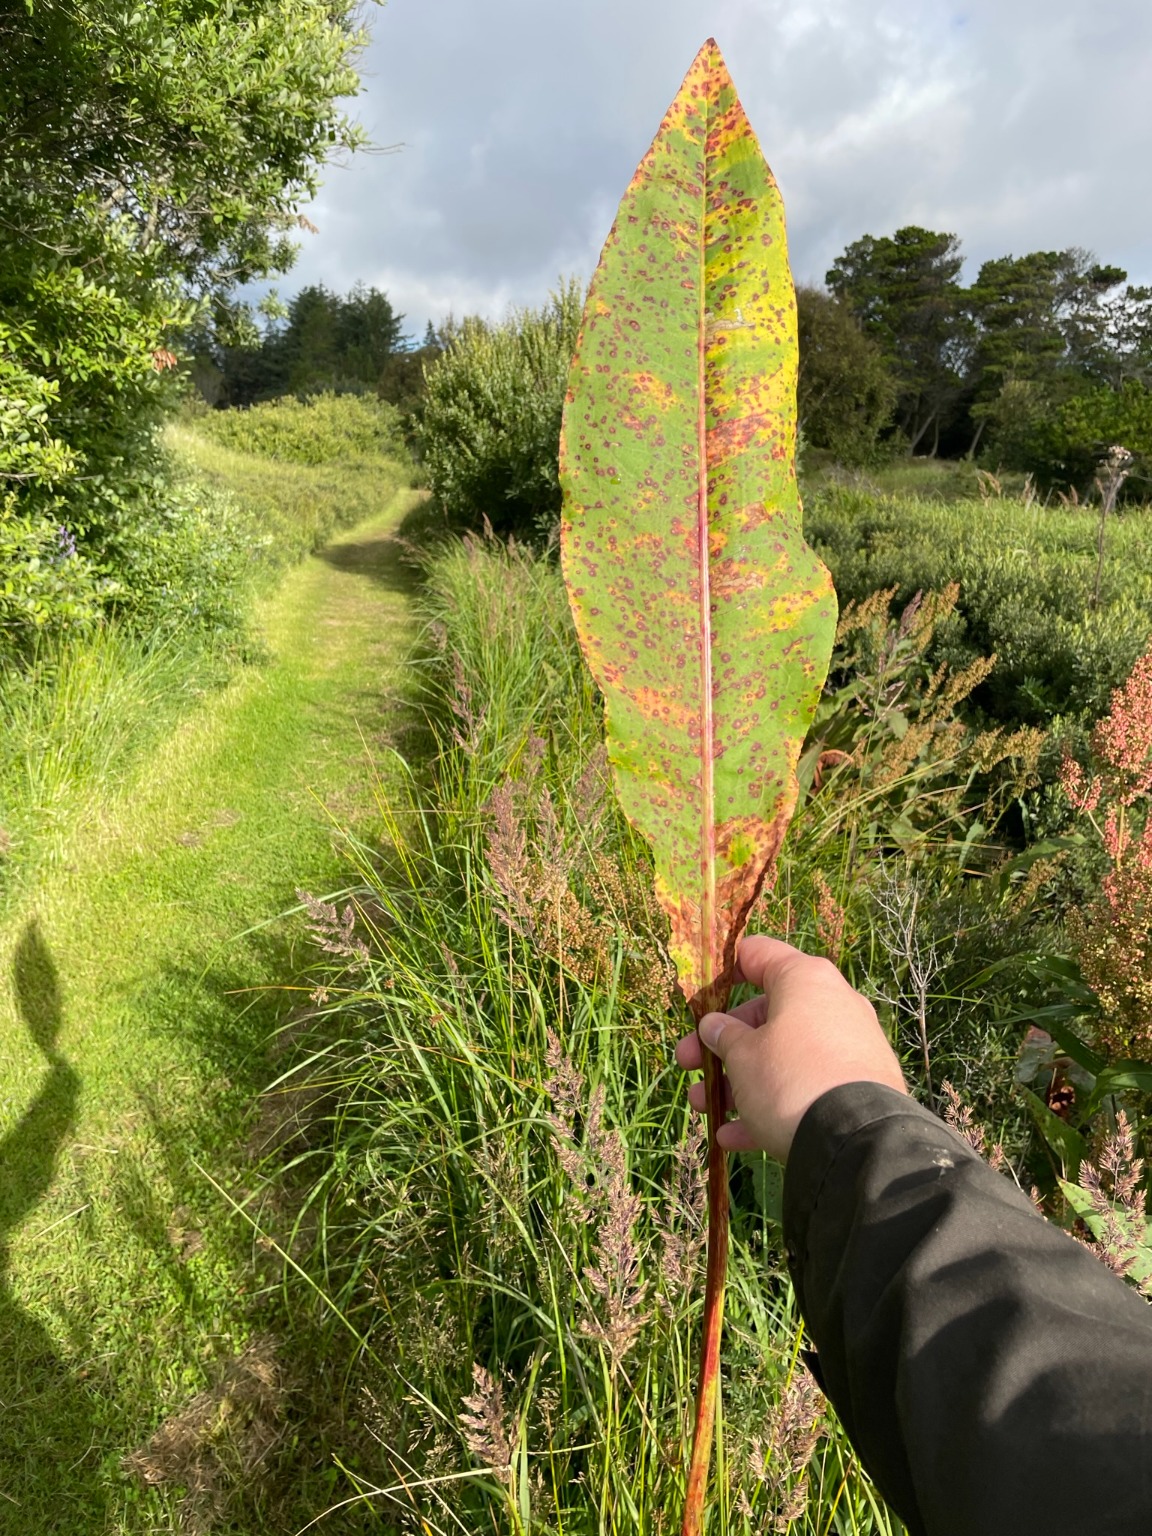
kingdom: Plantae
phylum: Tracheophyta
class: Magnoliopsida
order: Caryophyllales
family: Polygonaceae
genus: Rumex
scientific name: Rumex hydrolapathum
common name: Vand-skræppe
